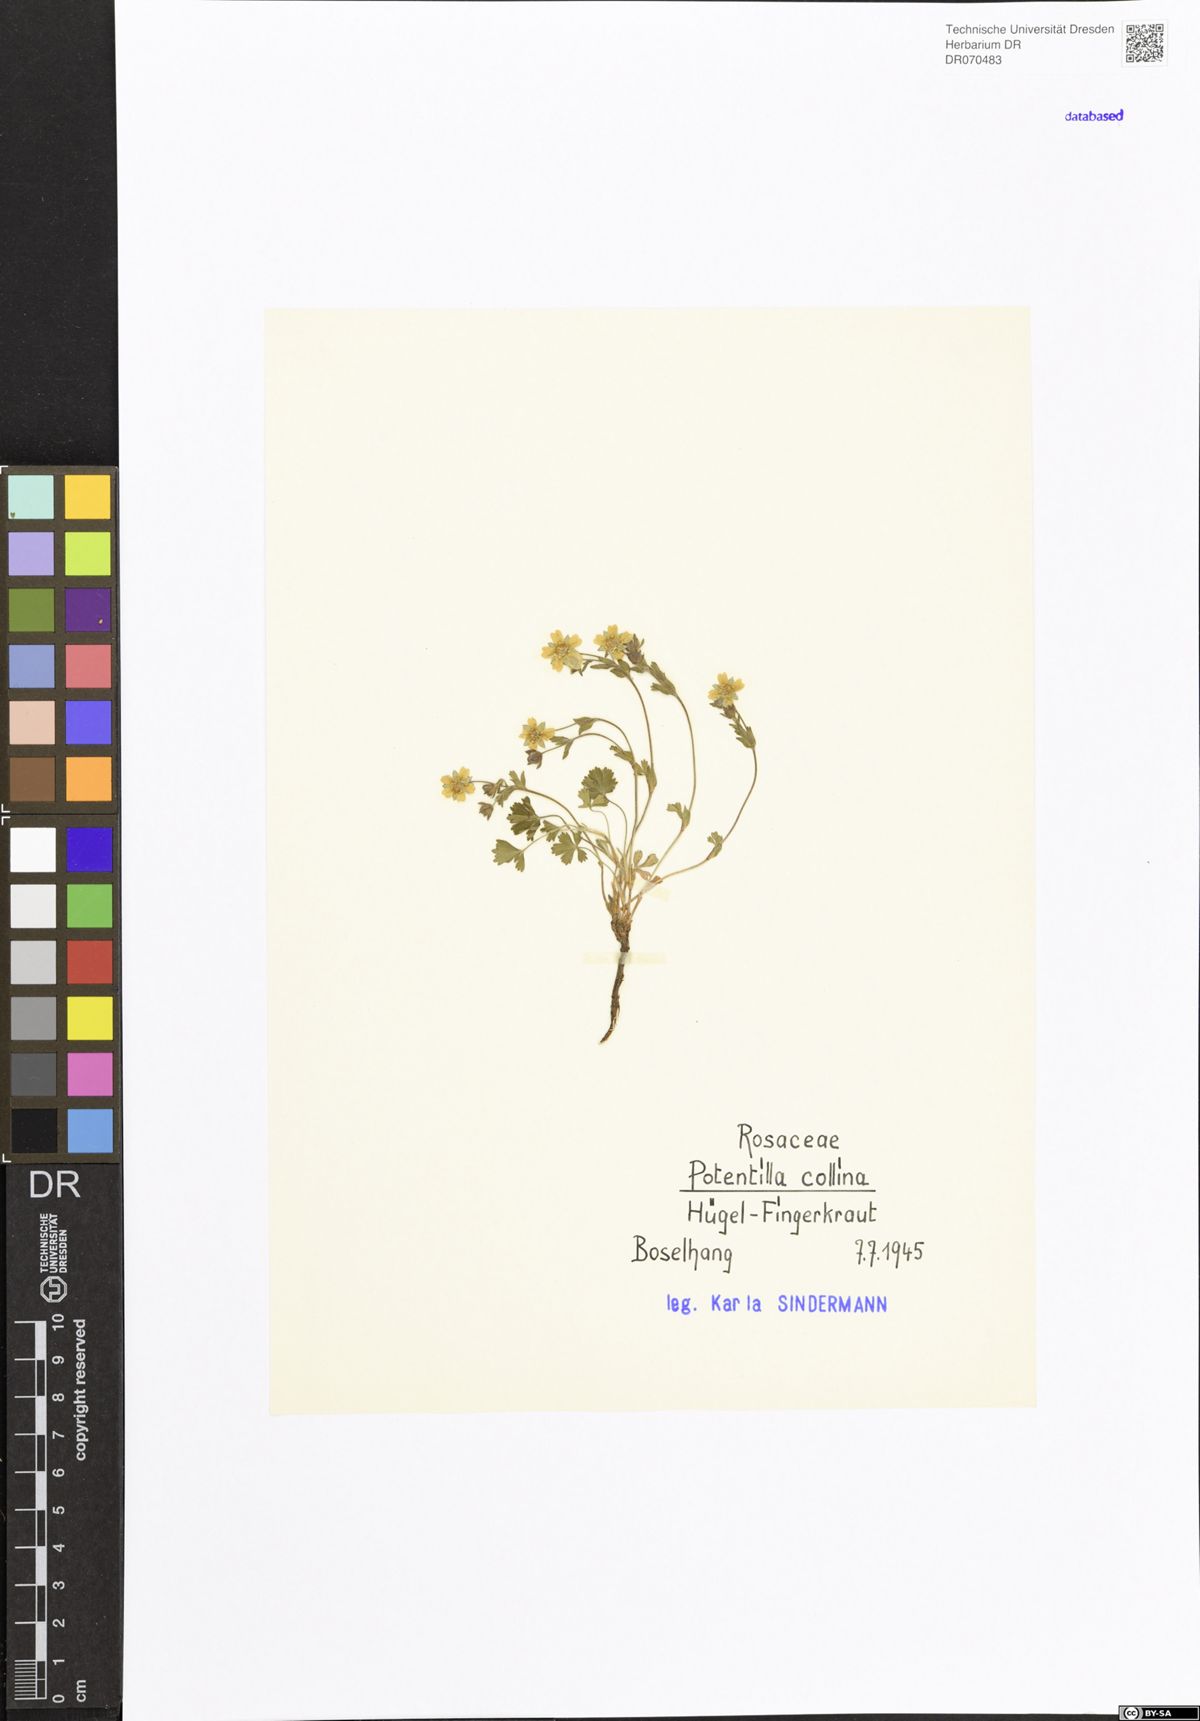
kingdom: Plantae
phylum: Tracheophyta
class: Magnoliopsida
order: Rosales
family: Rosaceae
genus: Potentilla
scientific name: Potentilla collina
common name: Palmleaf cinquefoil
